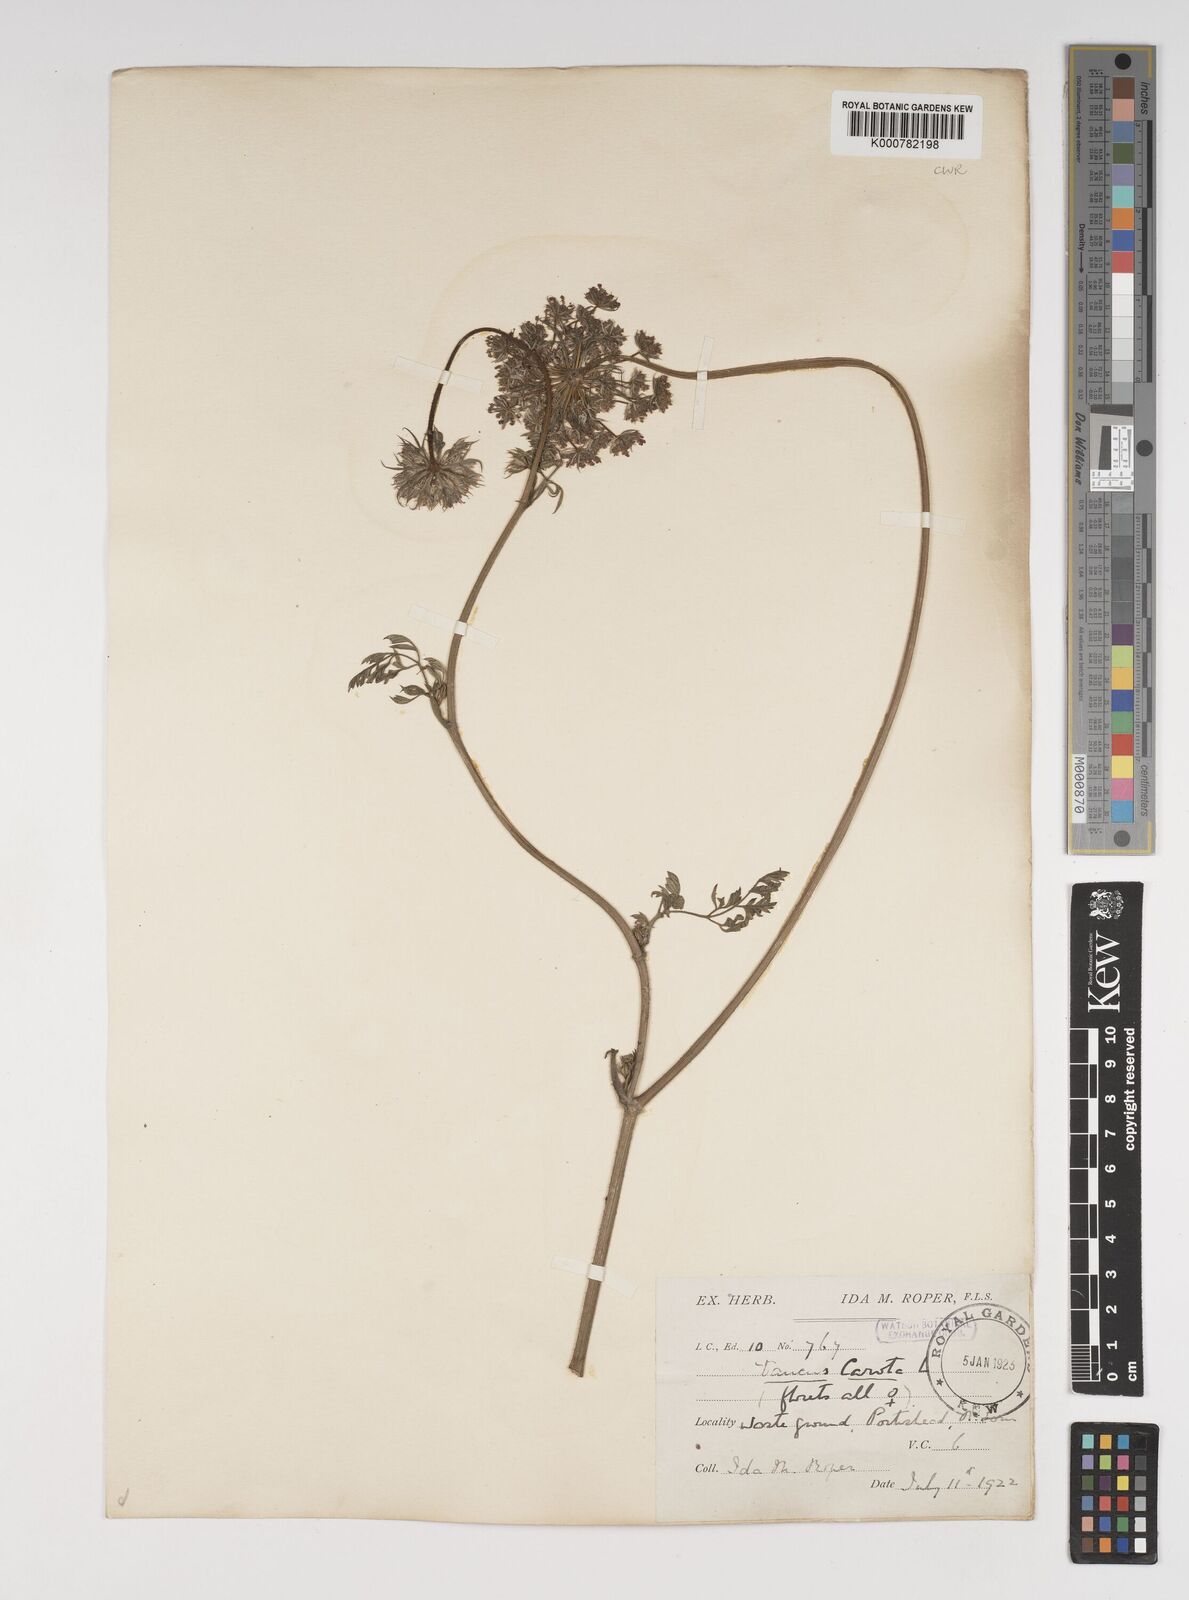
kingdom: Plantae
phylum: Tracheophyta
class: Magnoliopsida
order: Apiales
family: Apiaceae
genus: Daucus
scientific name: Daucus carota
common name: Wild carrot
